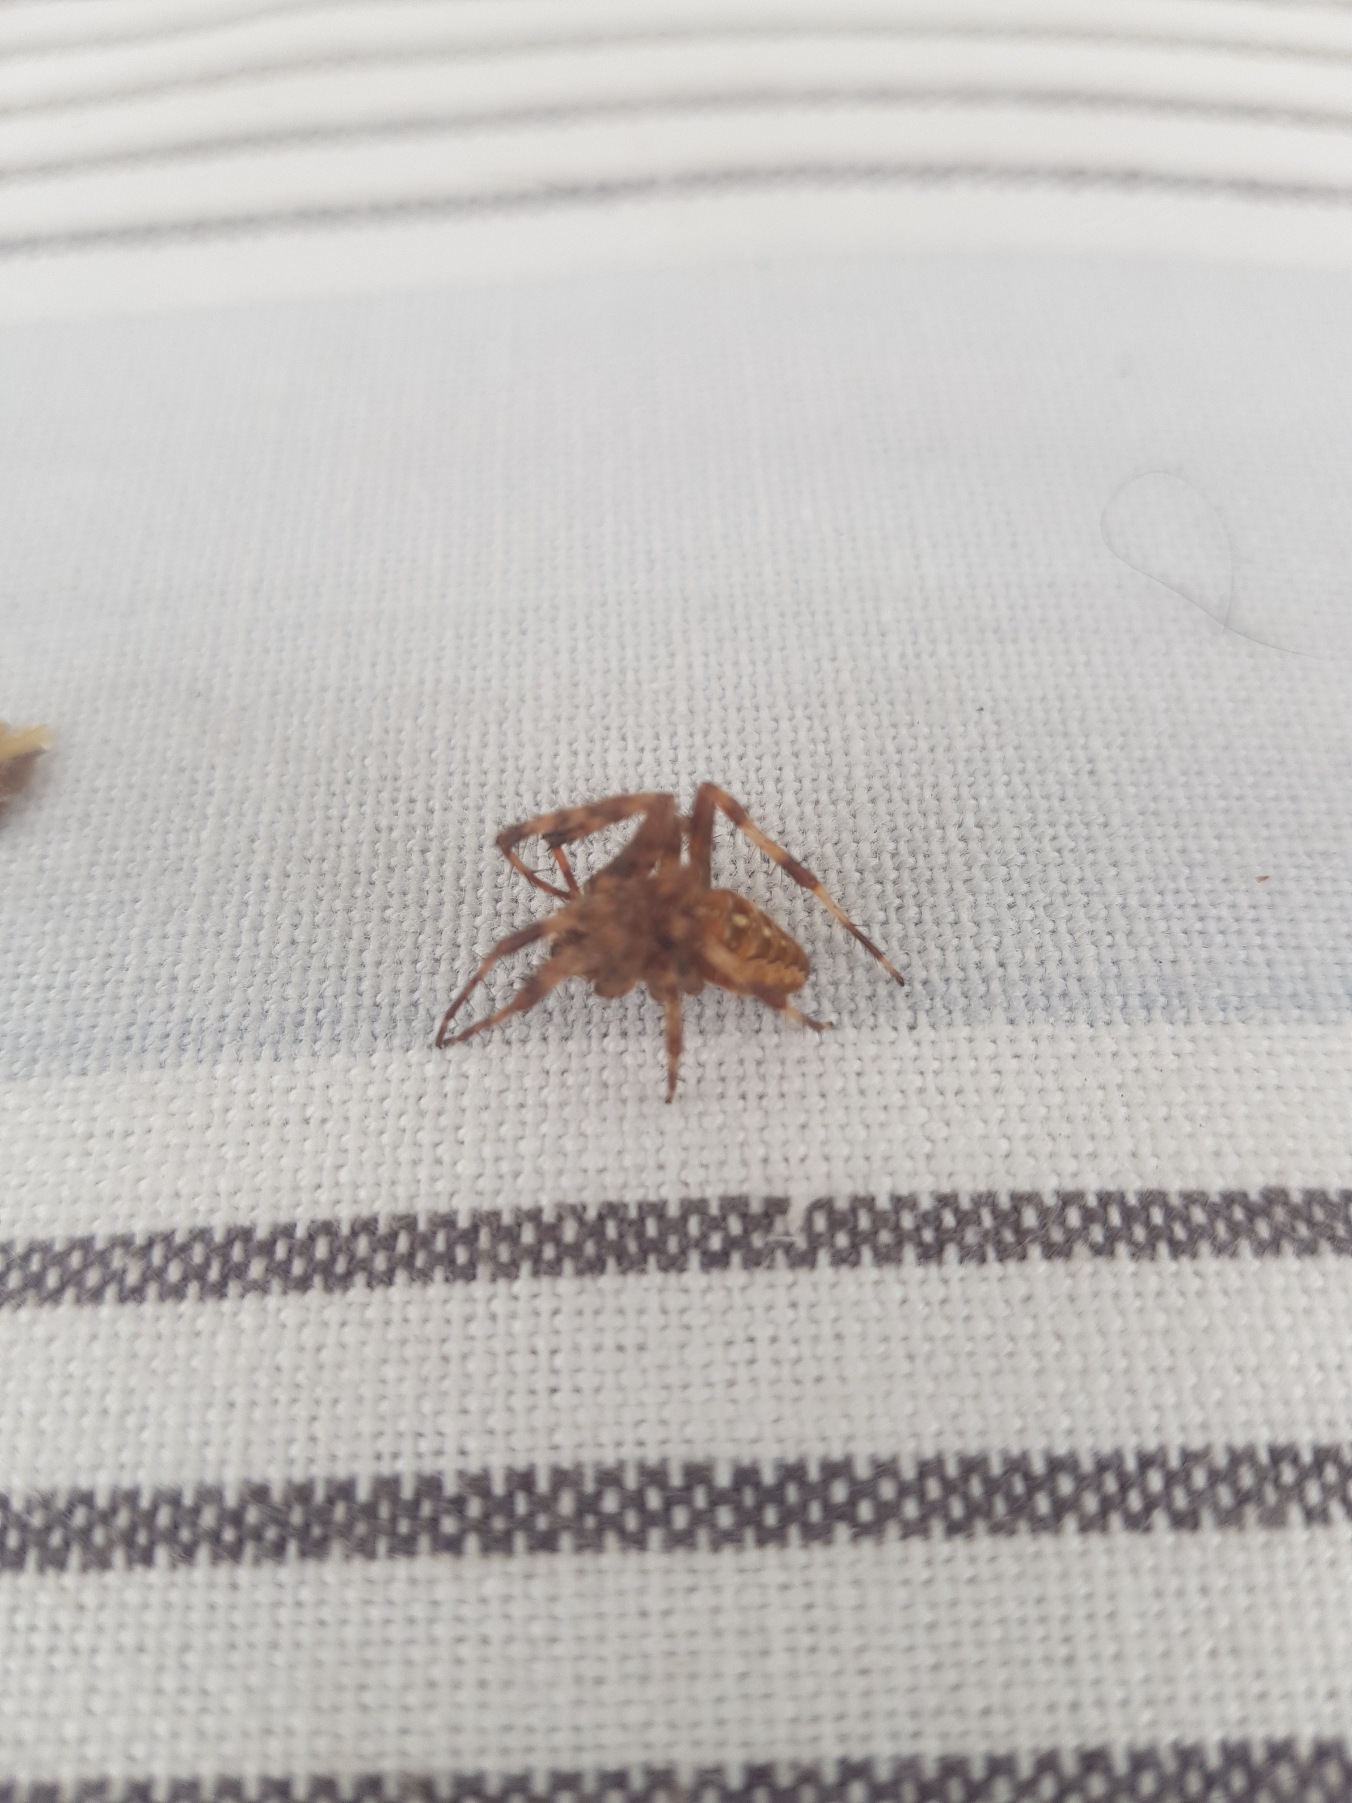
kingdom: Animalia
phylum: Arthropoda
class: Arachnida
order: Araneae
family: Araneidae
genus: Araneus
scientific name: Araneus diadematus
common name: Korsedderkop
